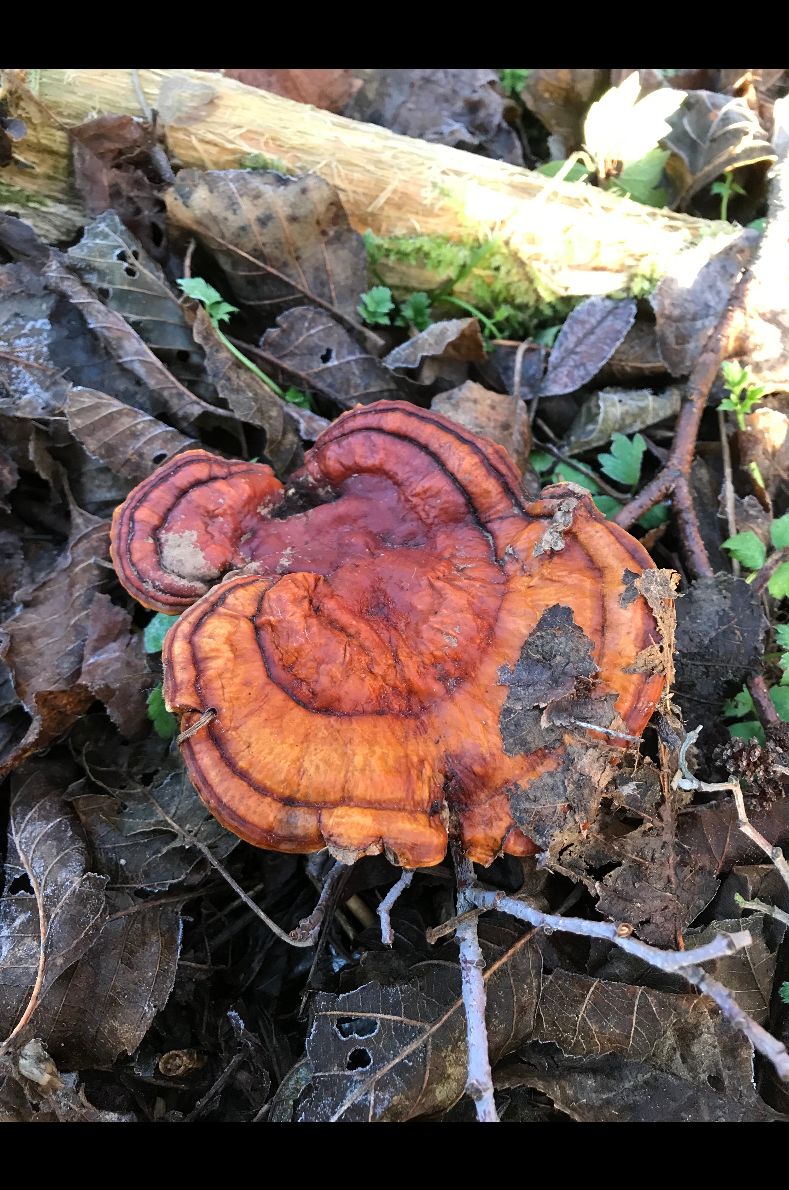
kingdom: Fungi
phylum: Basidiomycota
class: Agaricomycetes
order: Polyporales
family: Polyporaceae
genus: Ganoderma
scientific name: Ganoderma lucidum
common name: Lacquered bracket
